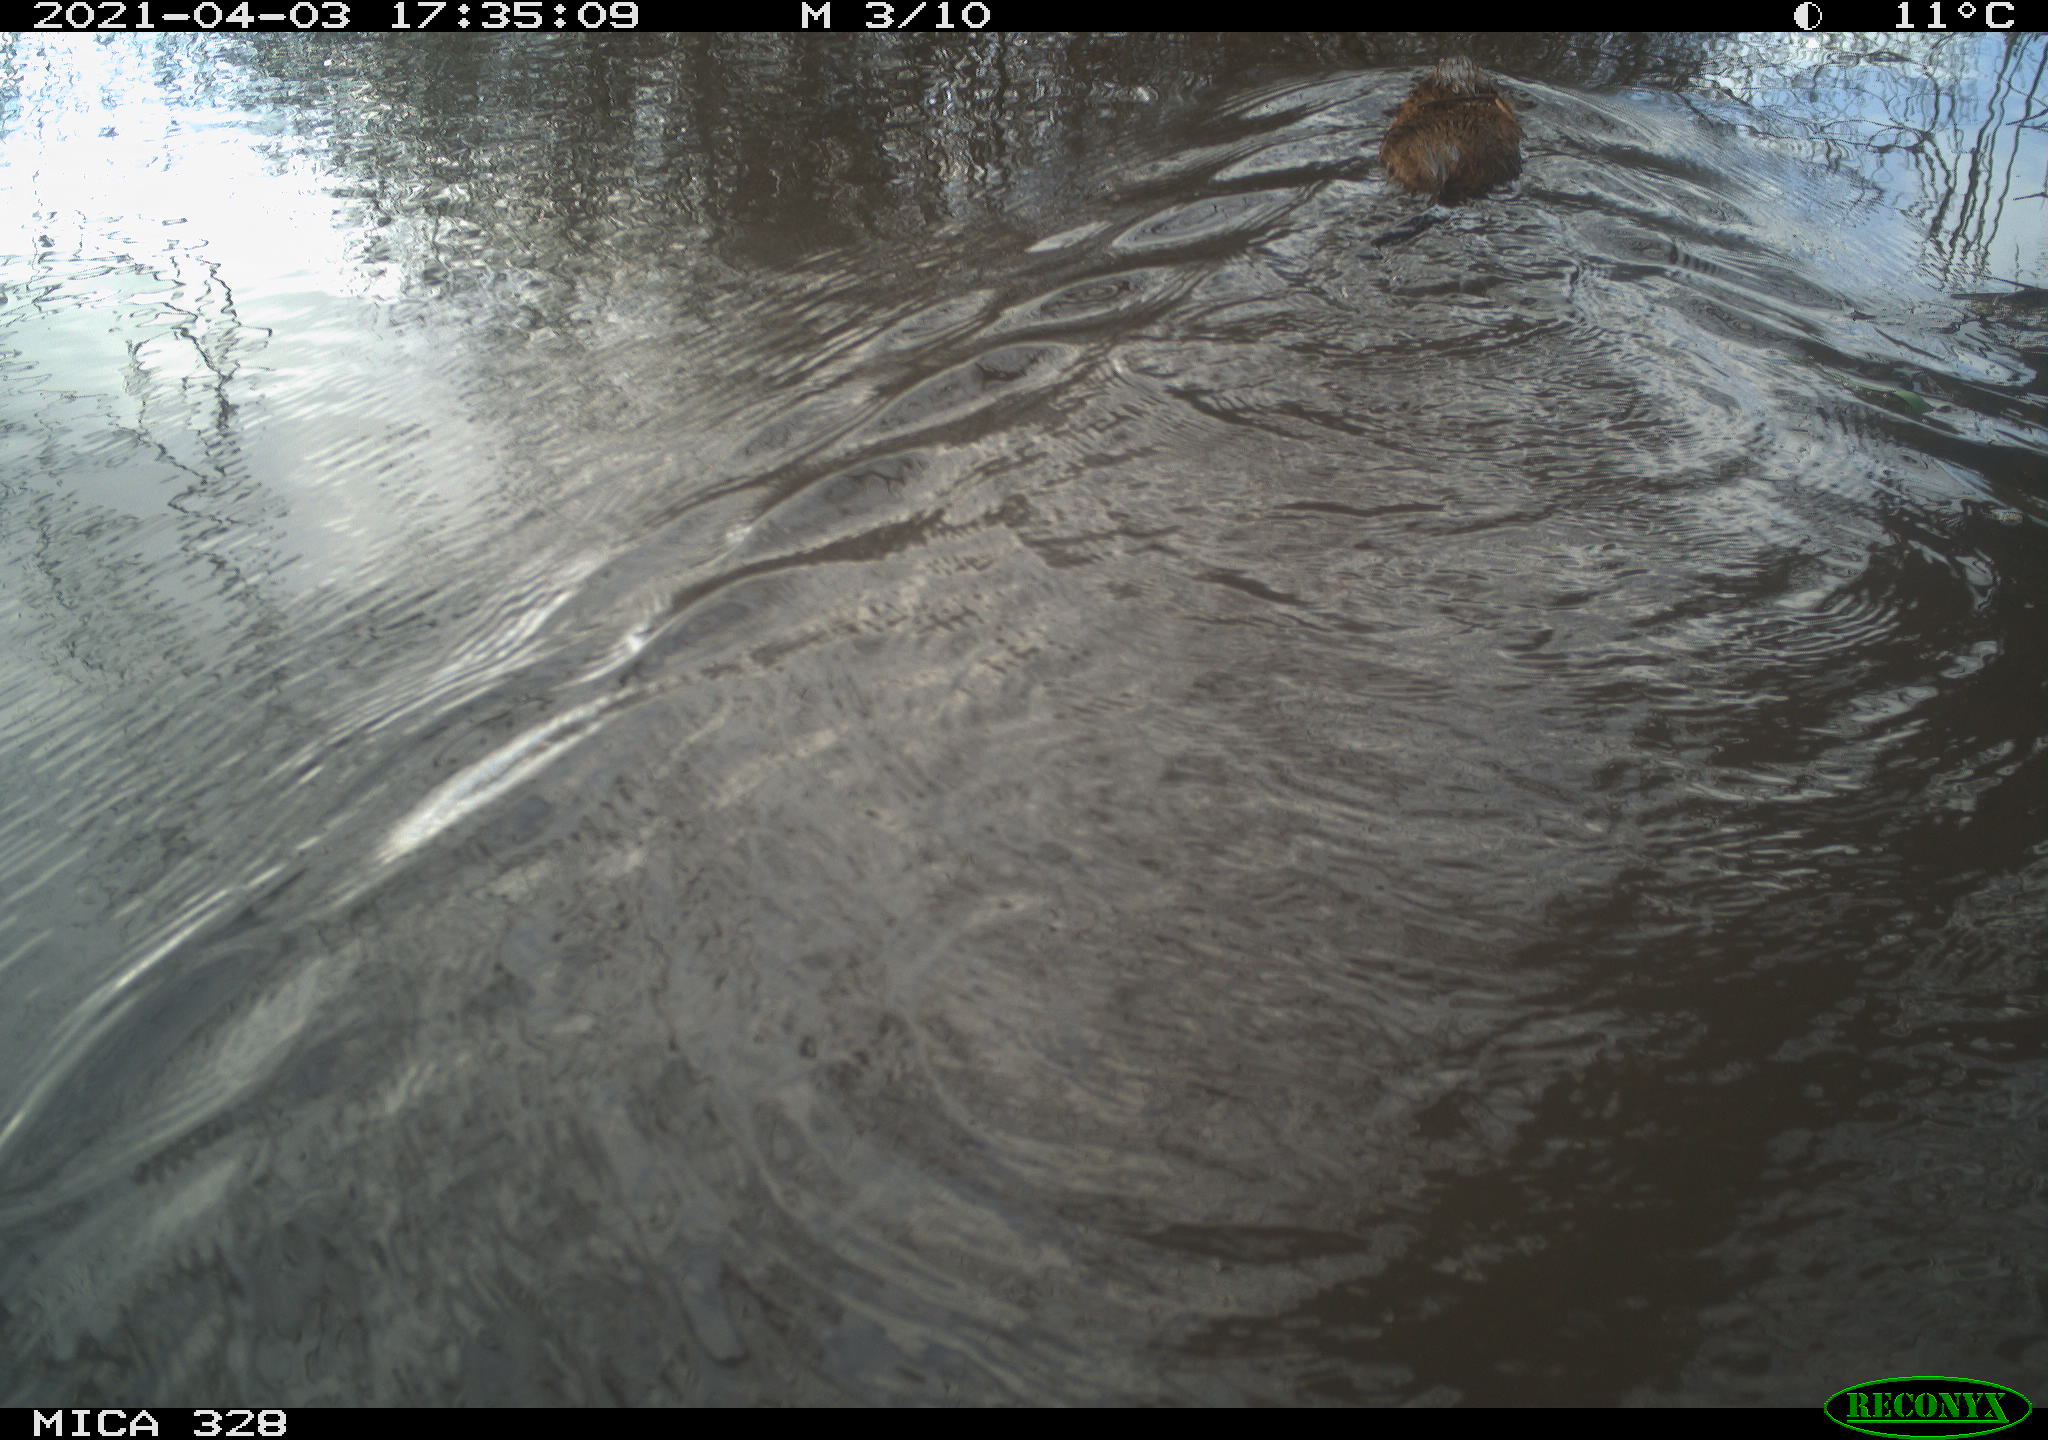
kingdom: Animalia
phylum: Chordata
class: Mammalia
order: Rodentia
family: Cricetidae
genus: Ondatra
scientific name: Ondatra zibethicus
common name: Muskrat
